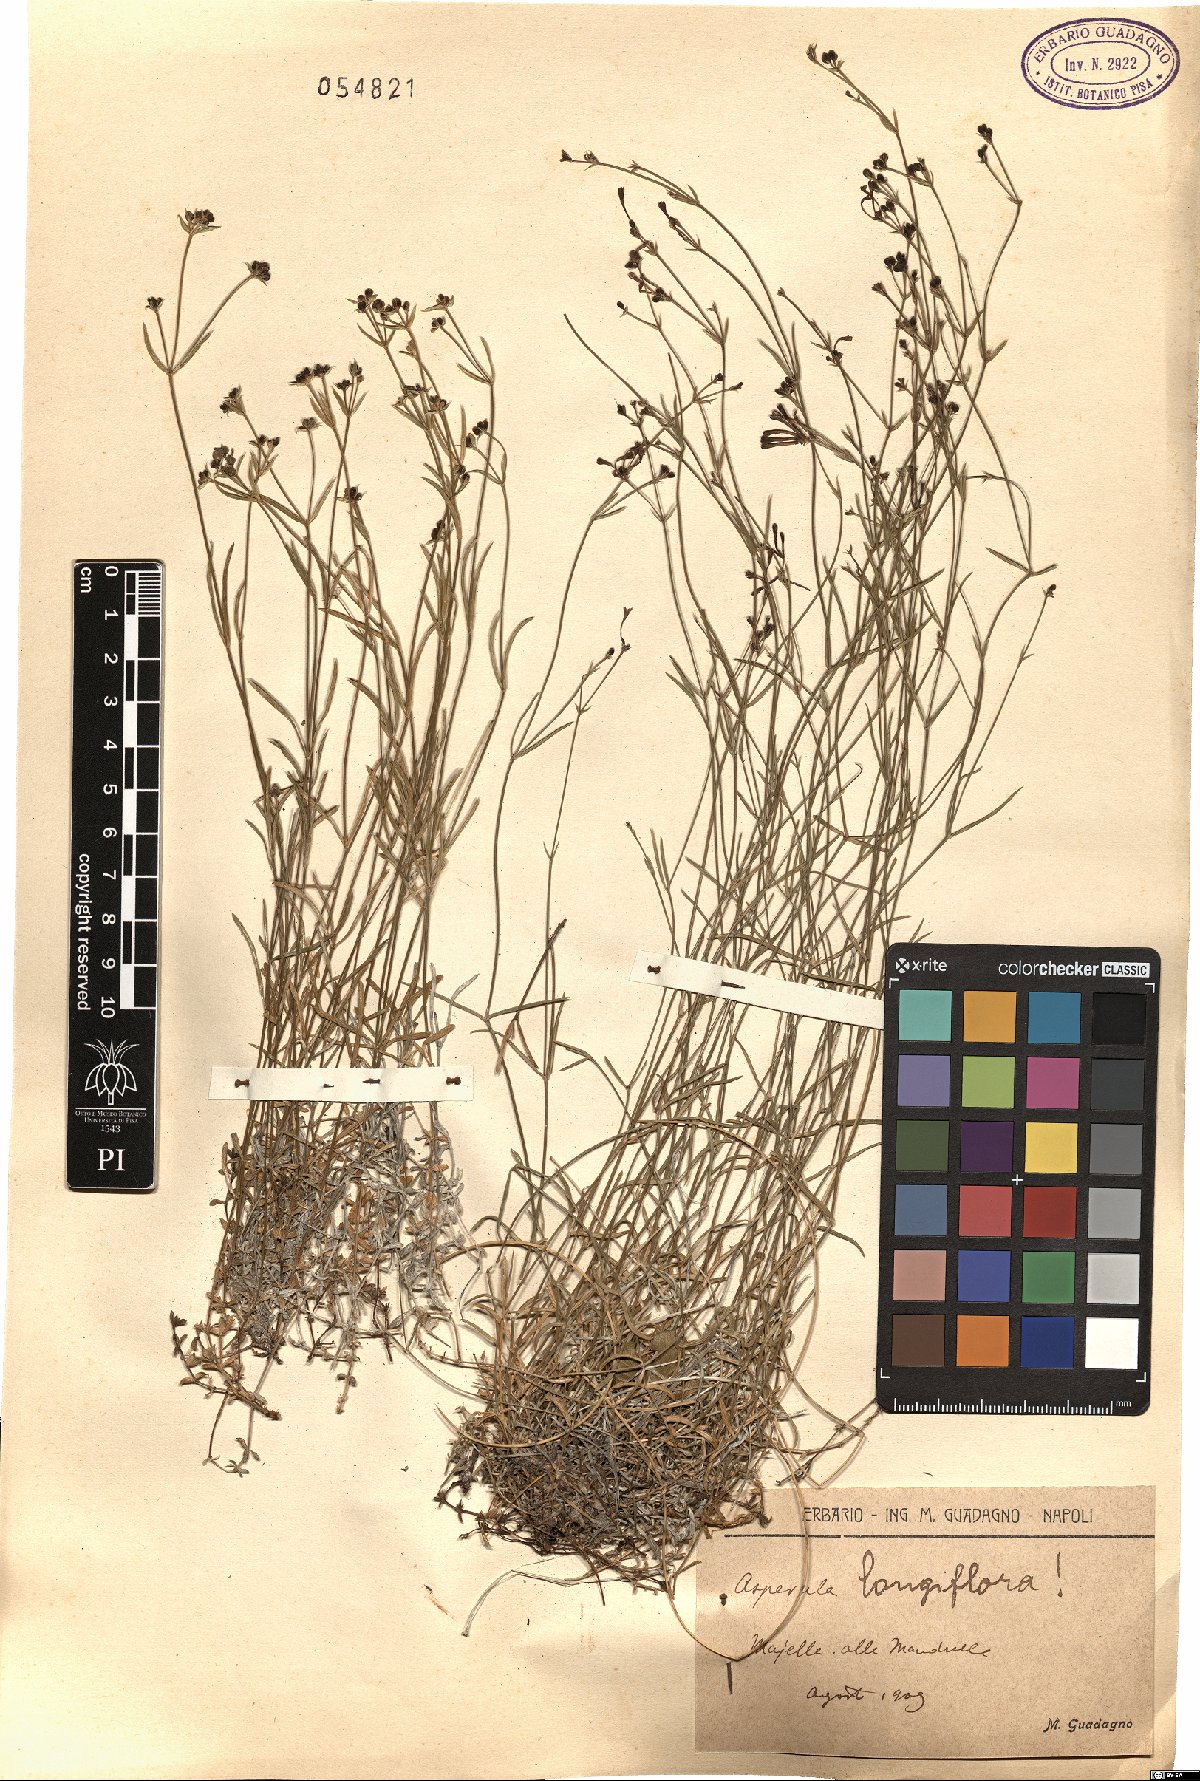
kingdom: Plantae
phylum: Tracheophyta
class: Magnoliopsida
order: Gentianales
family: Rubiaceae
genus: Cynanchica
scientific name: Cynanchica aristata
